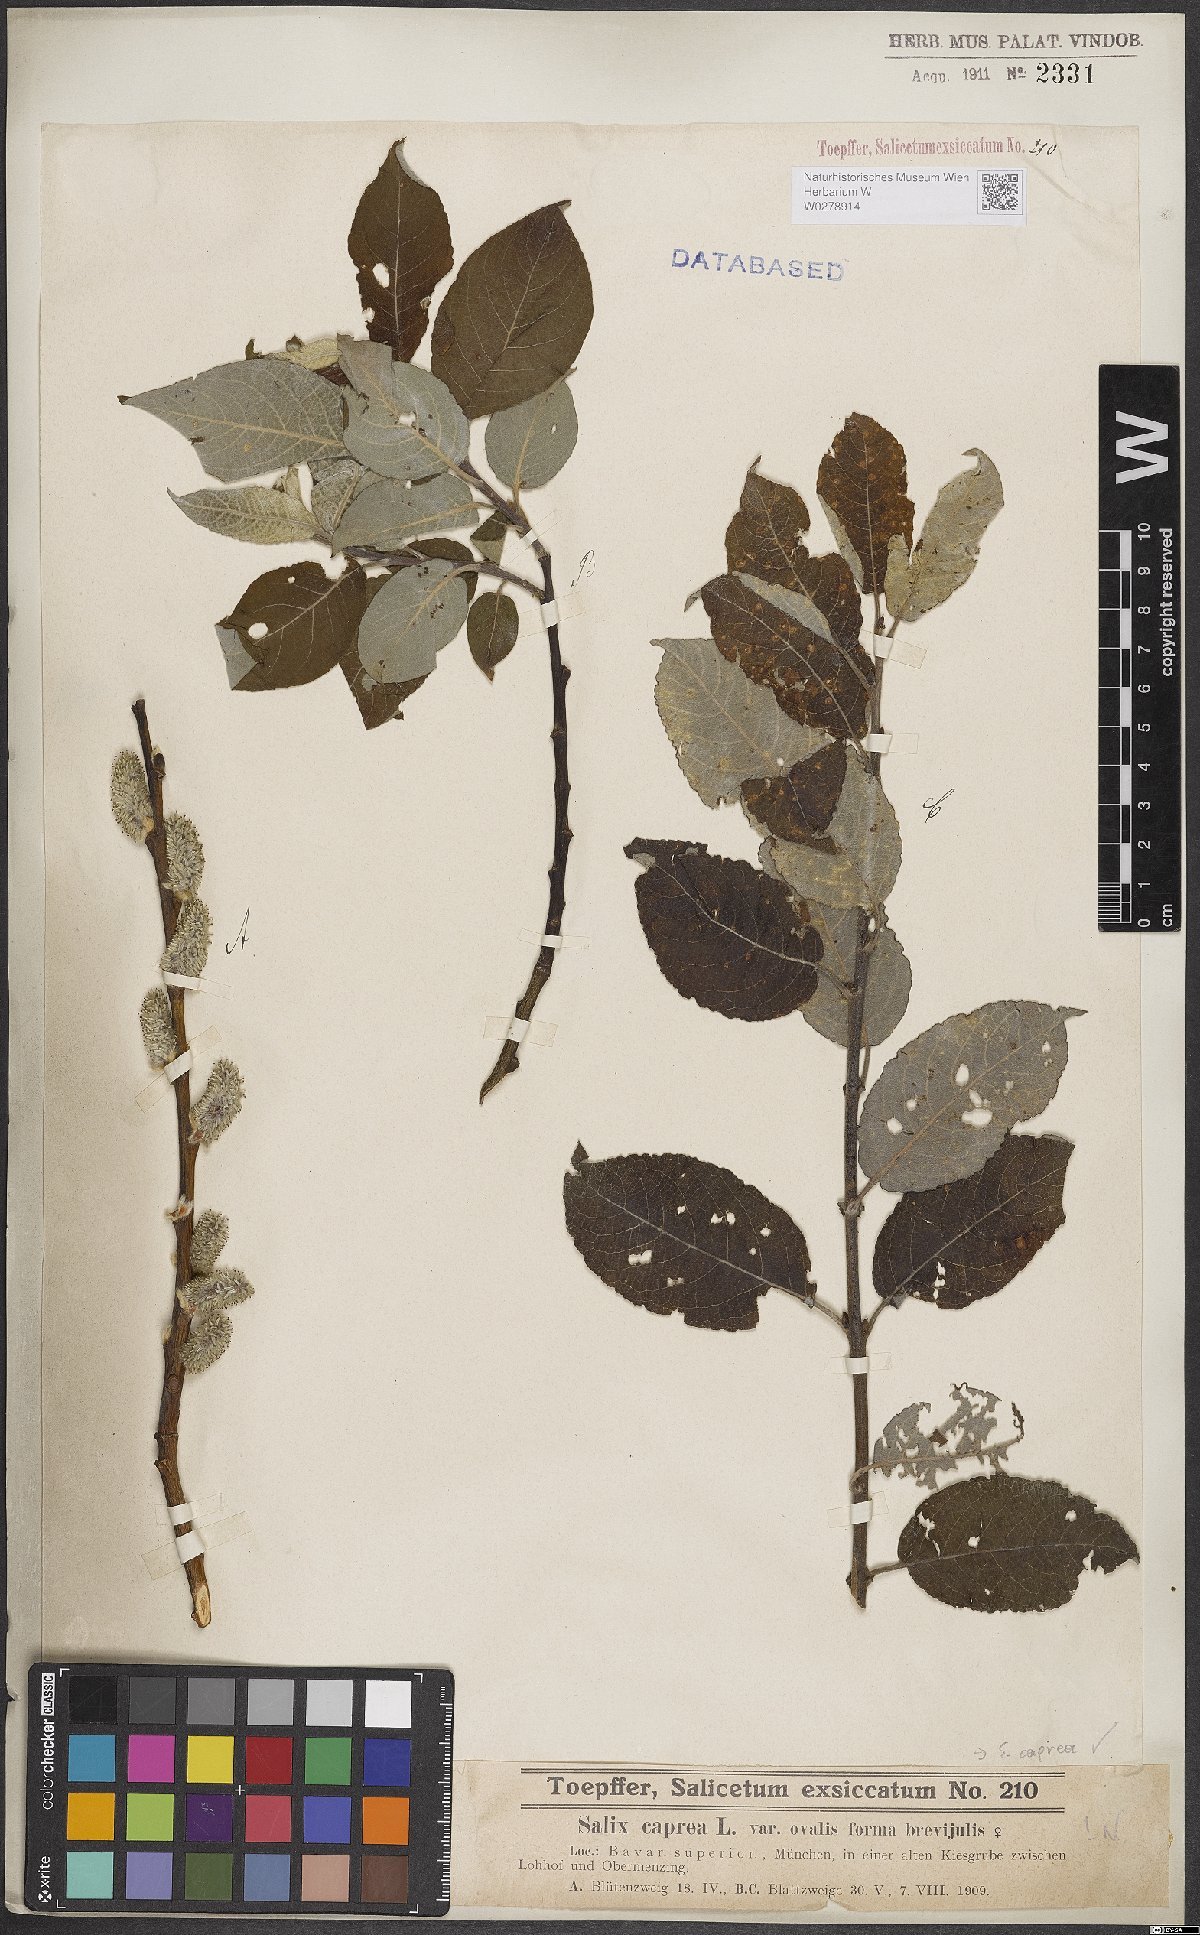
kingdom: Plantae
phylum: Tracheophyta
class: Magnoliopsida
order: Malpighiales
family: Salicaceae
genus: Salix
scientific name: Salix caprea
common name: Goat willow
